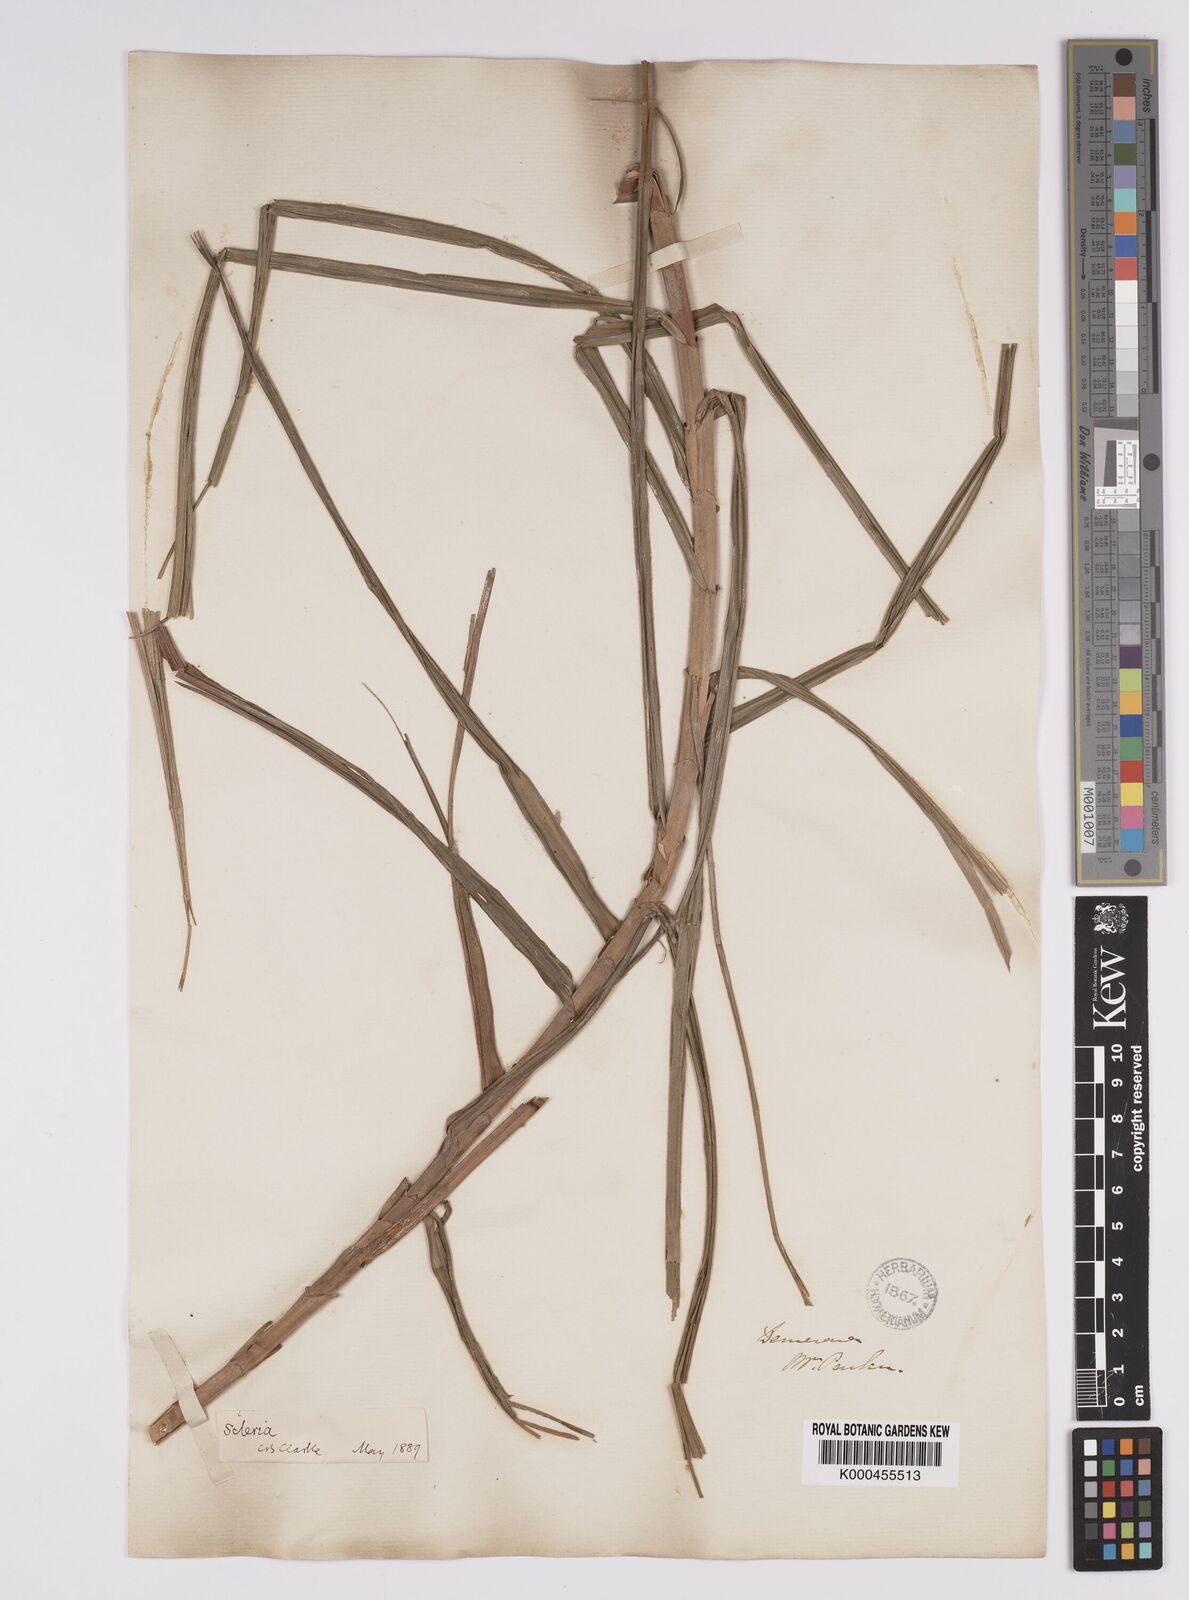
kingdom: Plantae
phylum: Tracheophyta
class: Liliopsida
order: Poales
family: Cyperaceae
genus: Scleria
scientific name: Scleria bracteata
